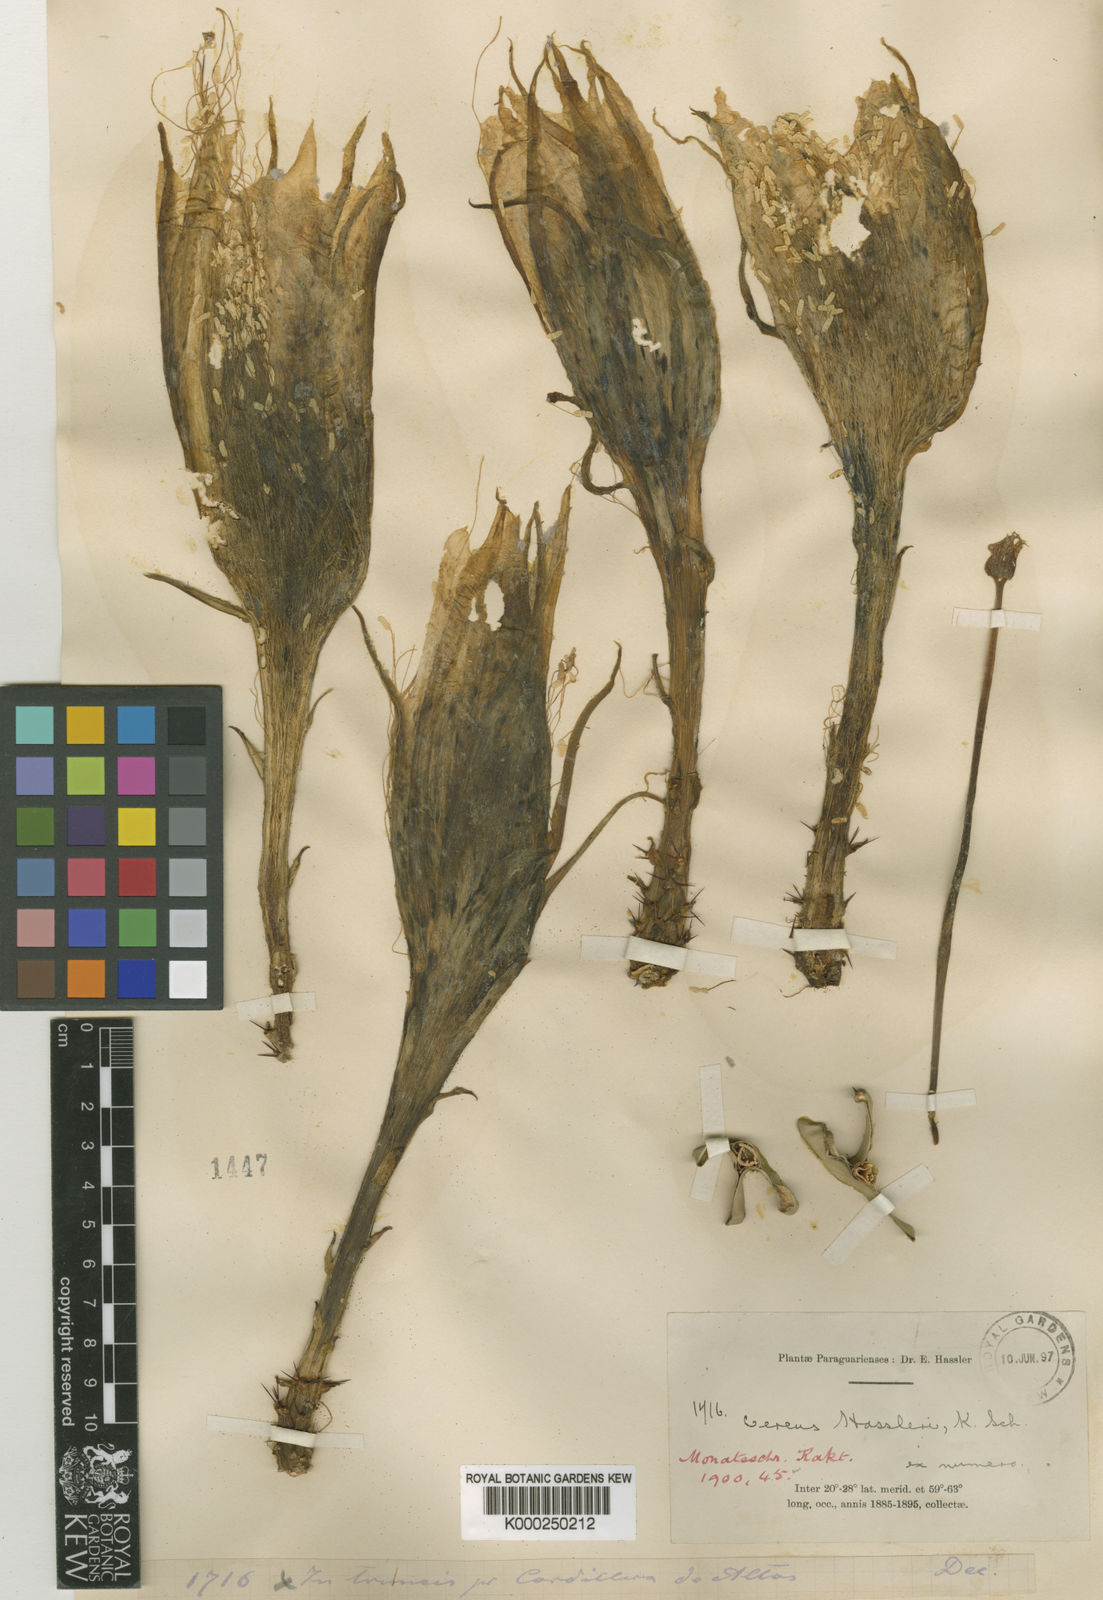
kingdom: Plantae
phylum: Tracheophyta
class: Magnoliopsida
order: Caryophyllales
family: Cactaceae
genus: Selenicereus
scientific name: Selenicereus setaceus
